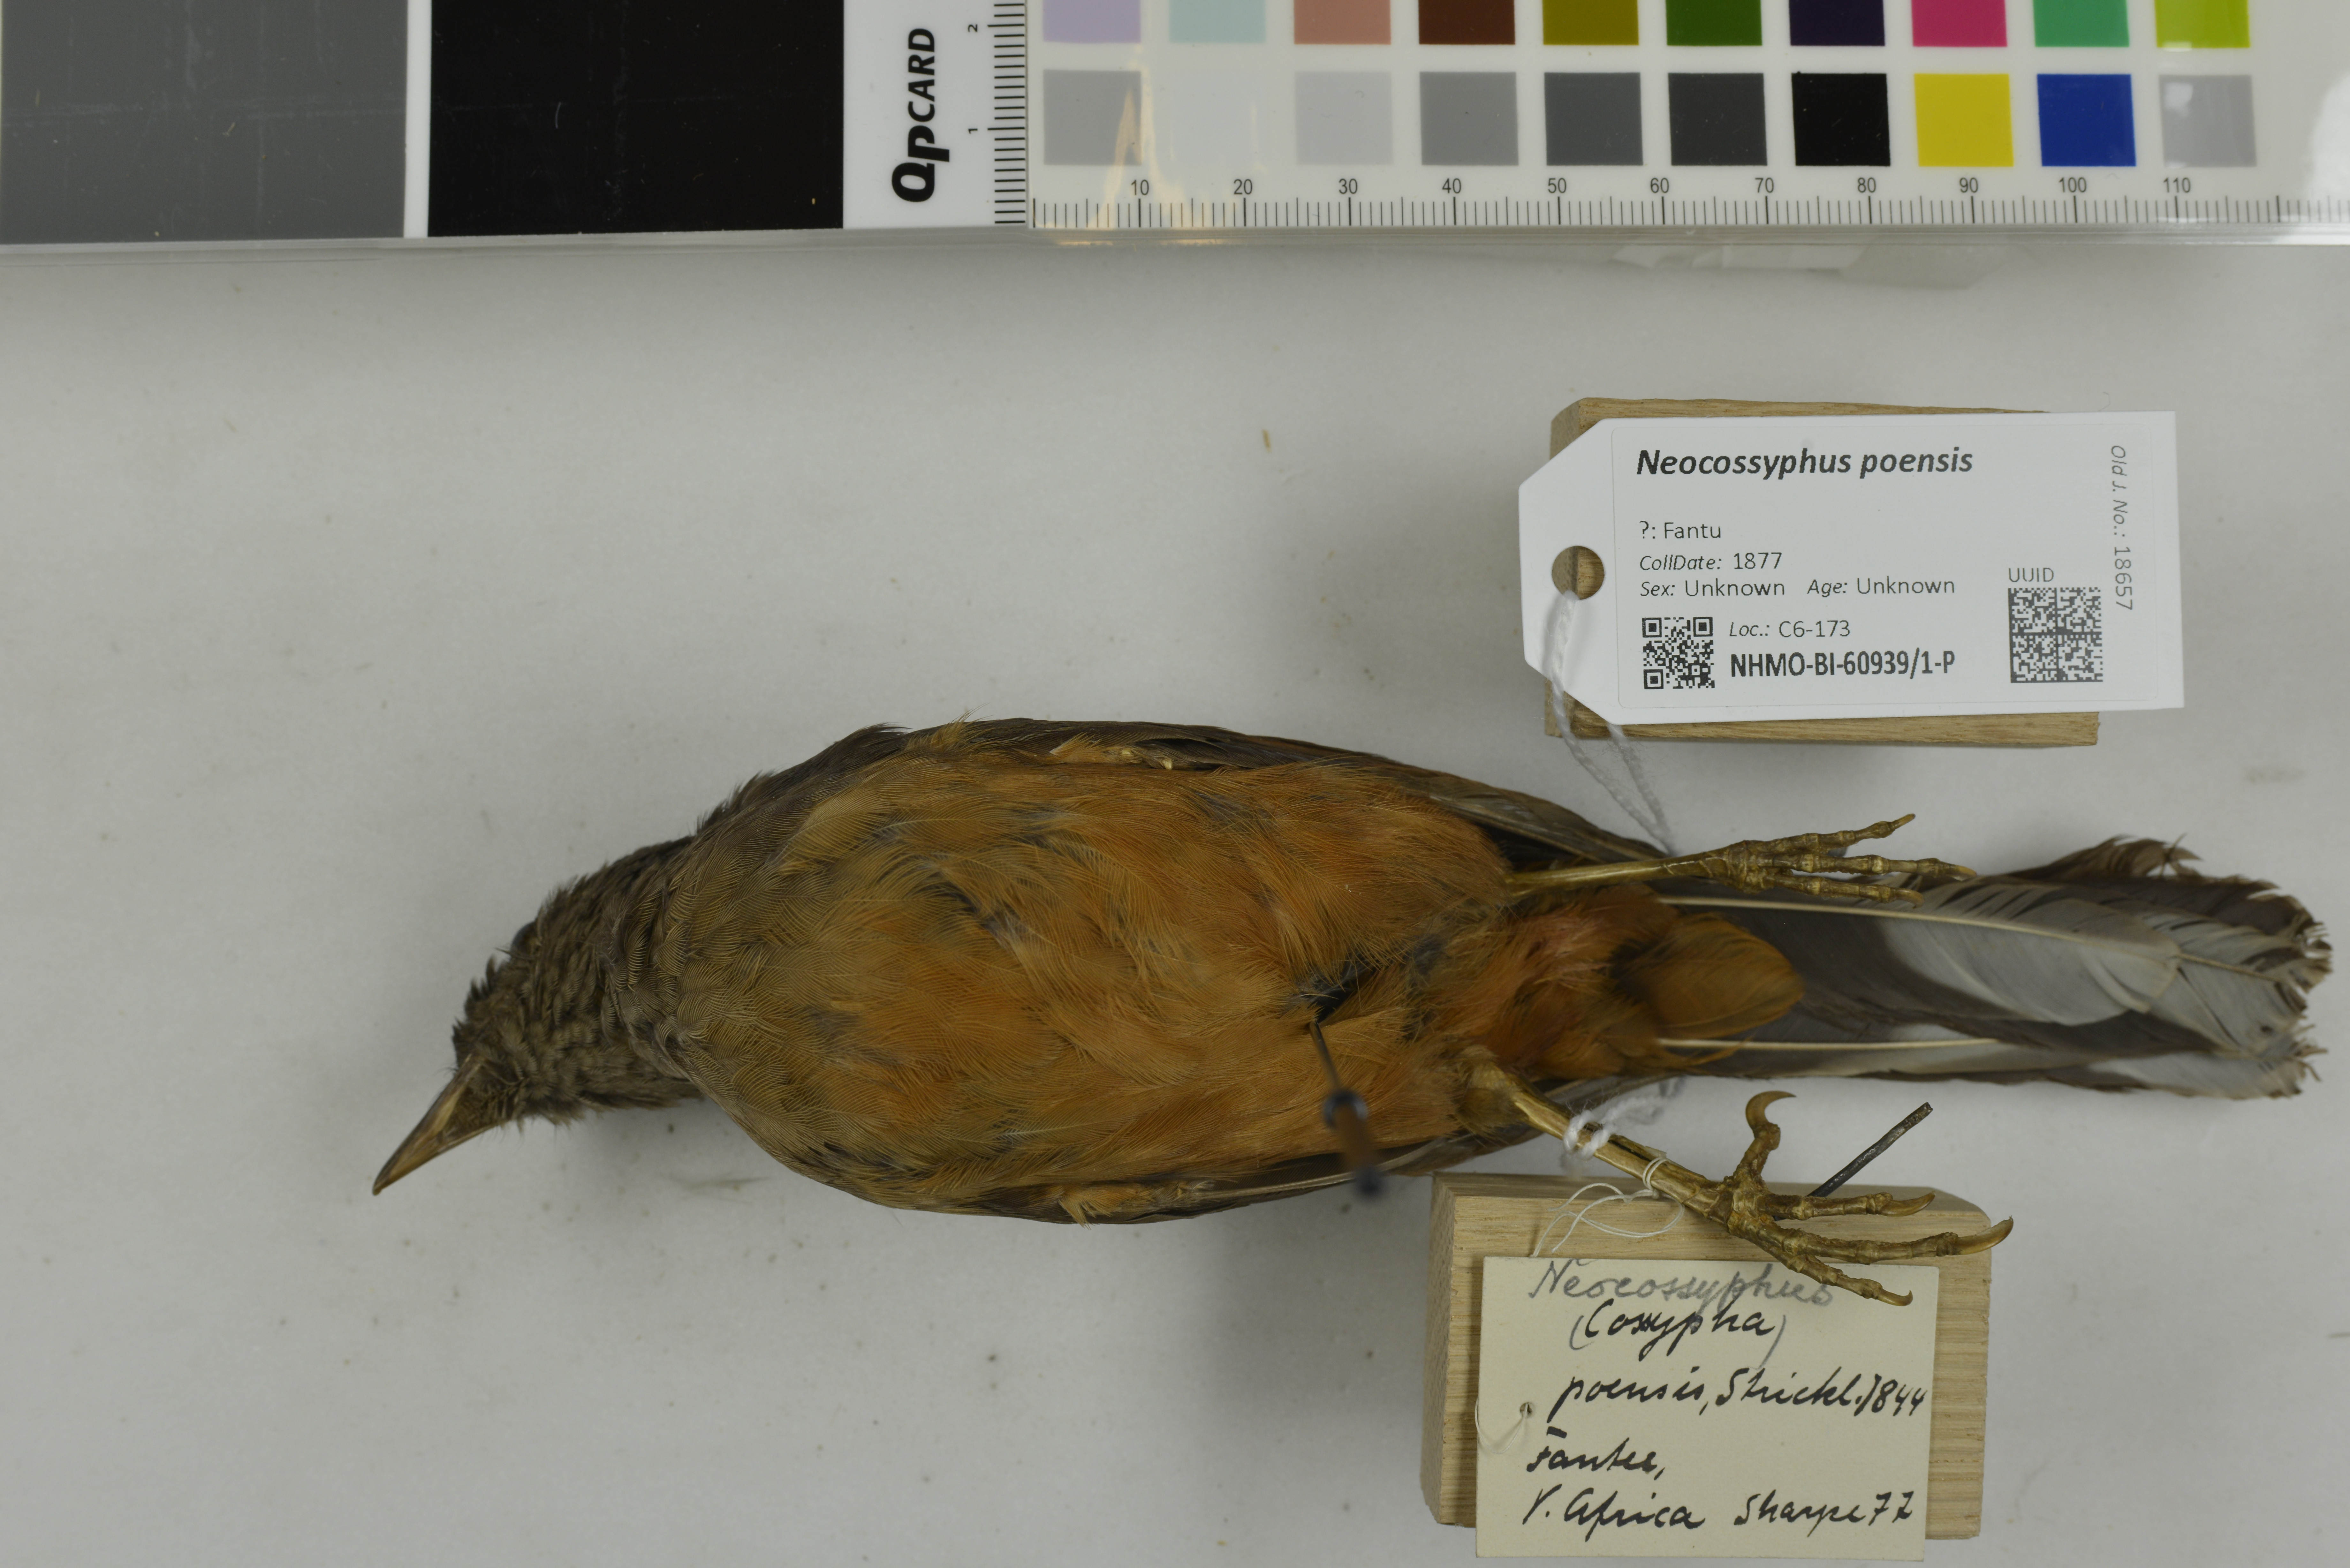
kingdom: Animalia
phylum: Chordata
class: Aves
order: Passeriformes
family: Turdidae
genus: Neocossyphus
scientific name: Neocossyphus poensis
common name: White-tailed rufous thrush
